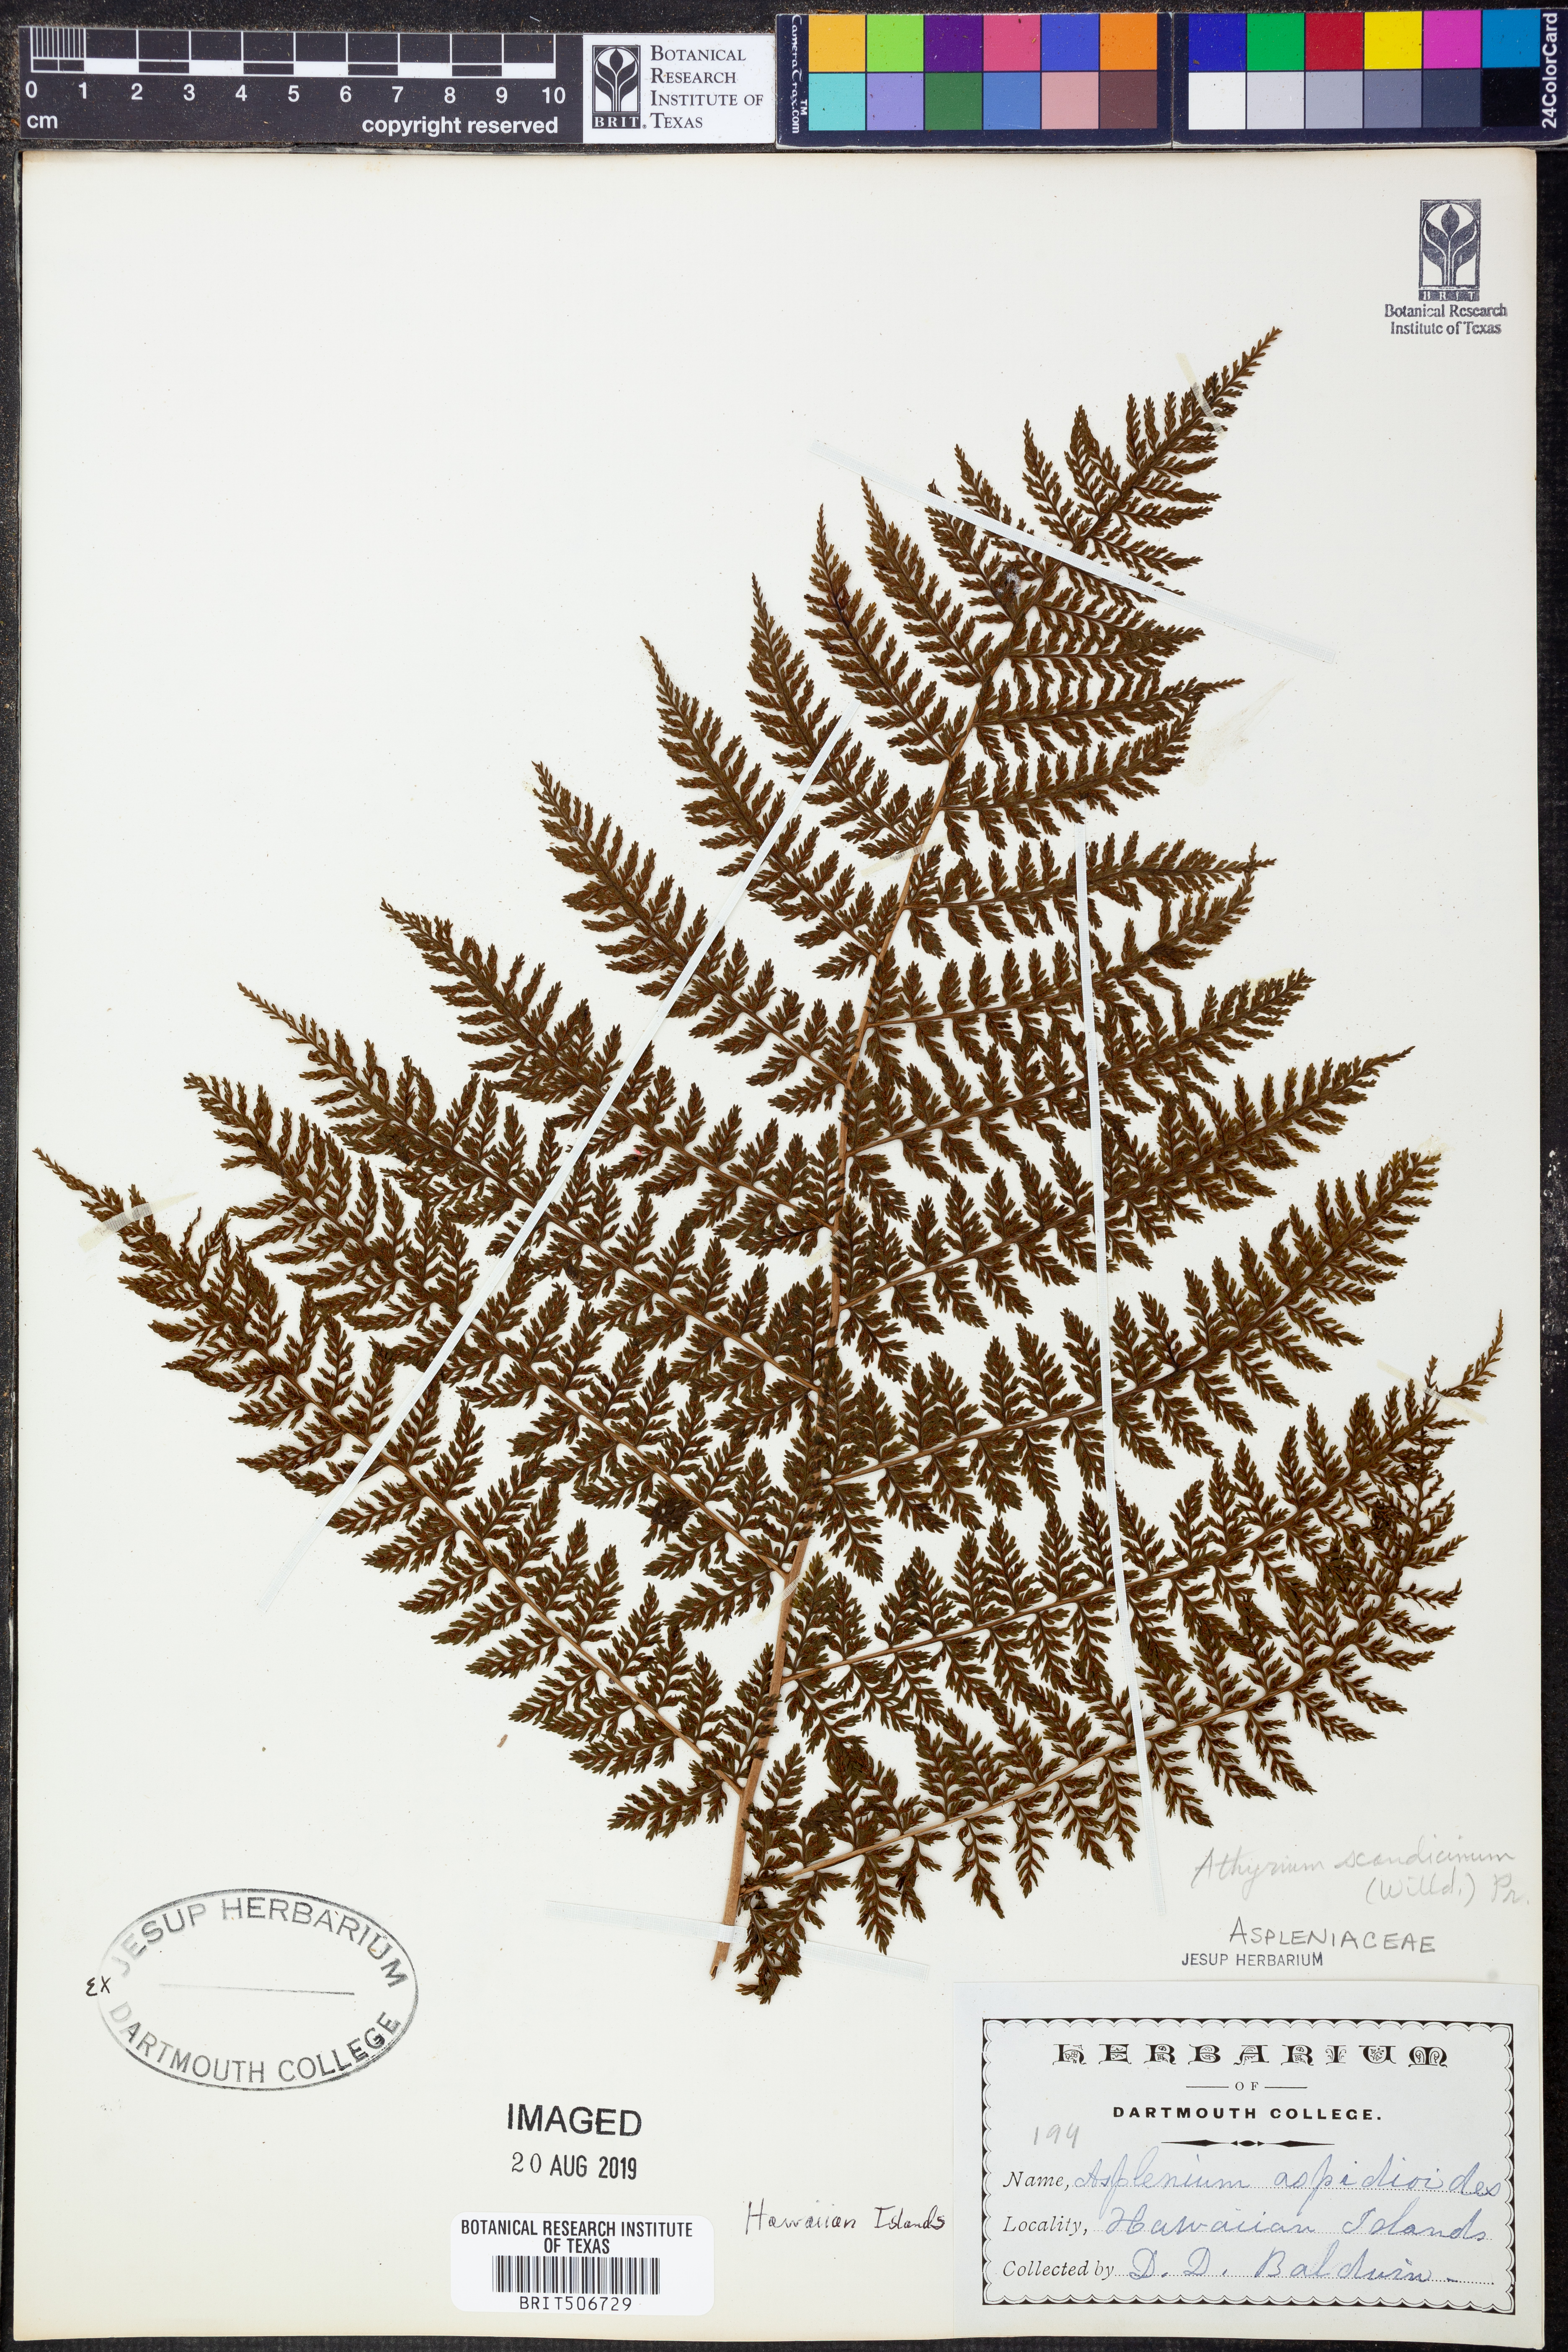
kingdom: Plantae
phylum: Tracheophyta
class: Polypodiopsida
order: Polypodiales
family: Athyriaceae
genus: Athyrium
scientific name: Athyrium scandicinum
